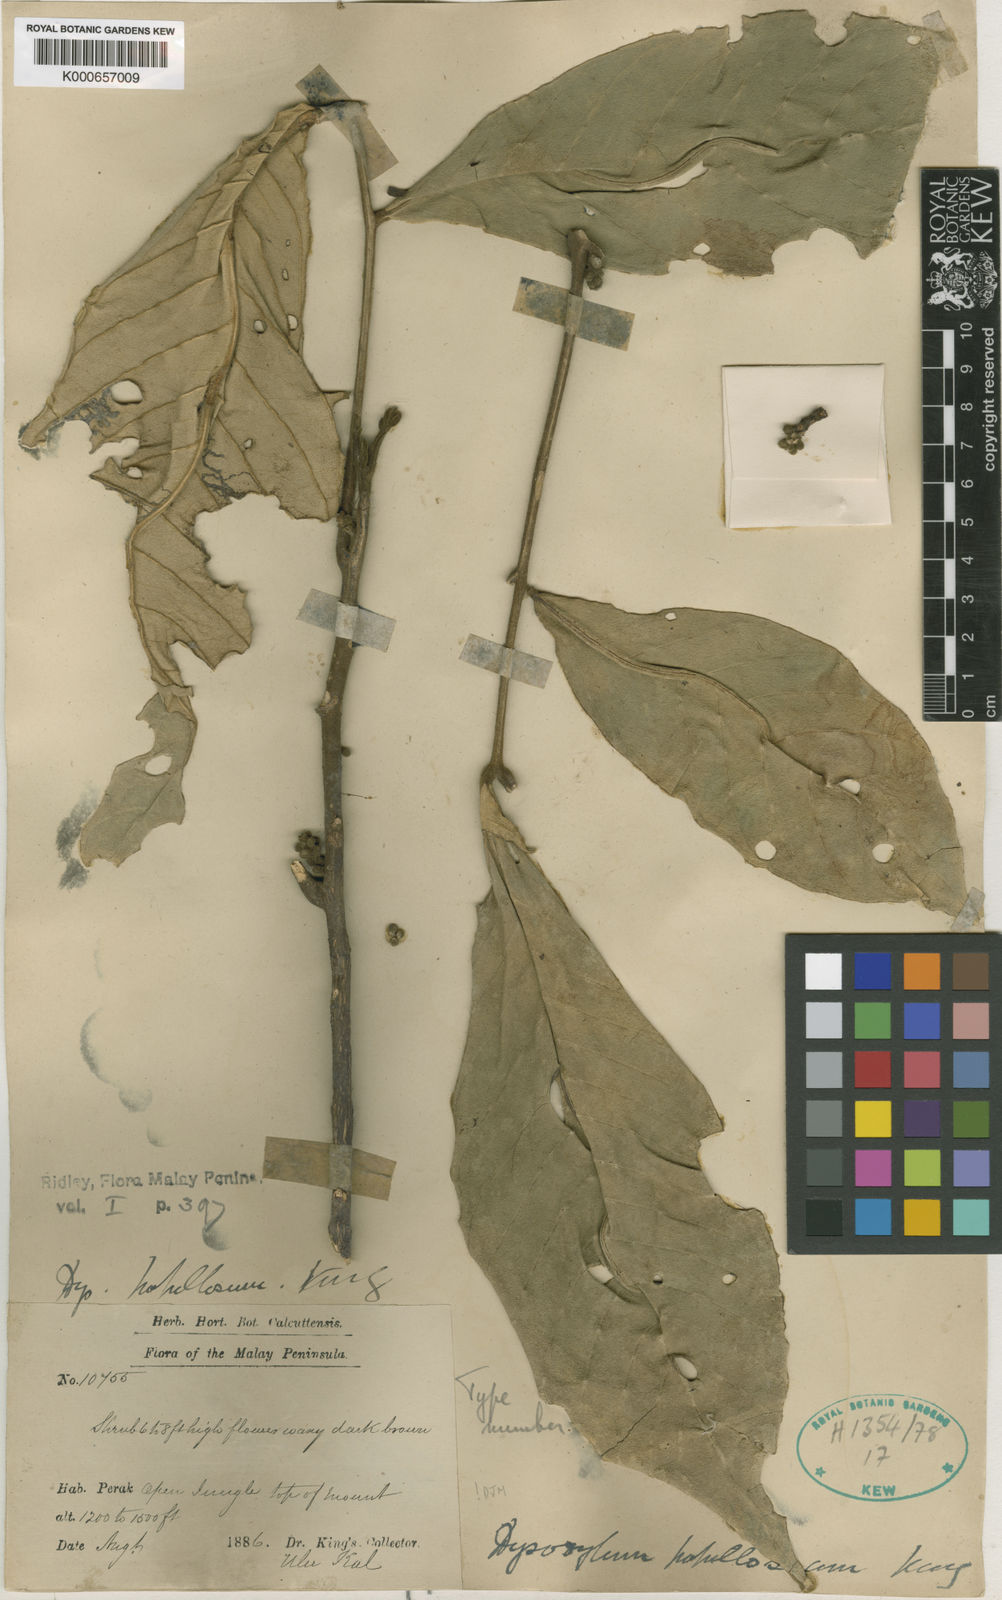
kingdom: Plantae
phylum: Tracheophyta
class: Magnoliopsida
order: Sapindales
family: Meliaceae
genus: Dysoxylum
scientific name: Dysoxylum papillosum
